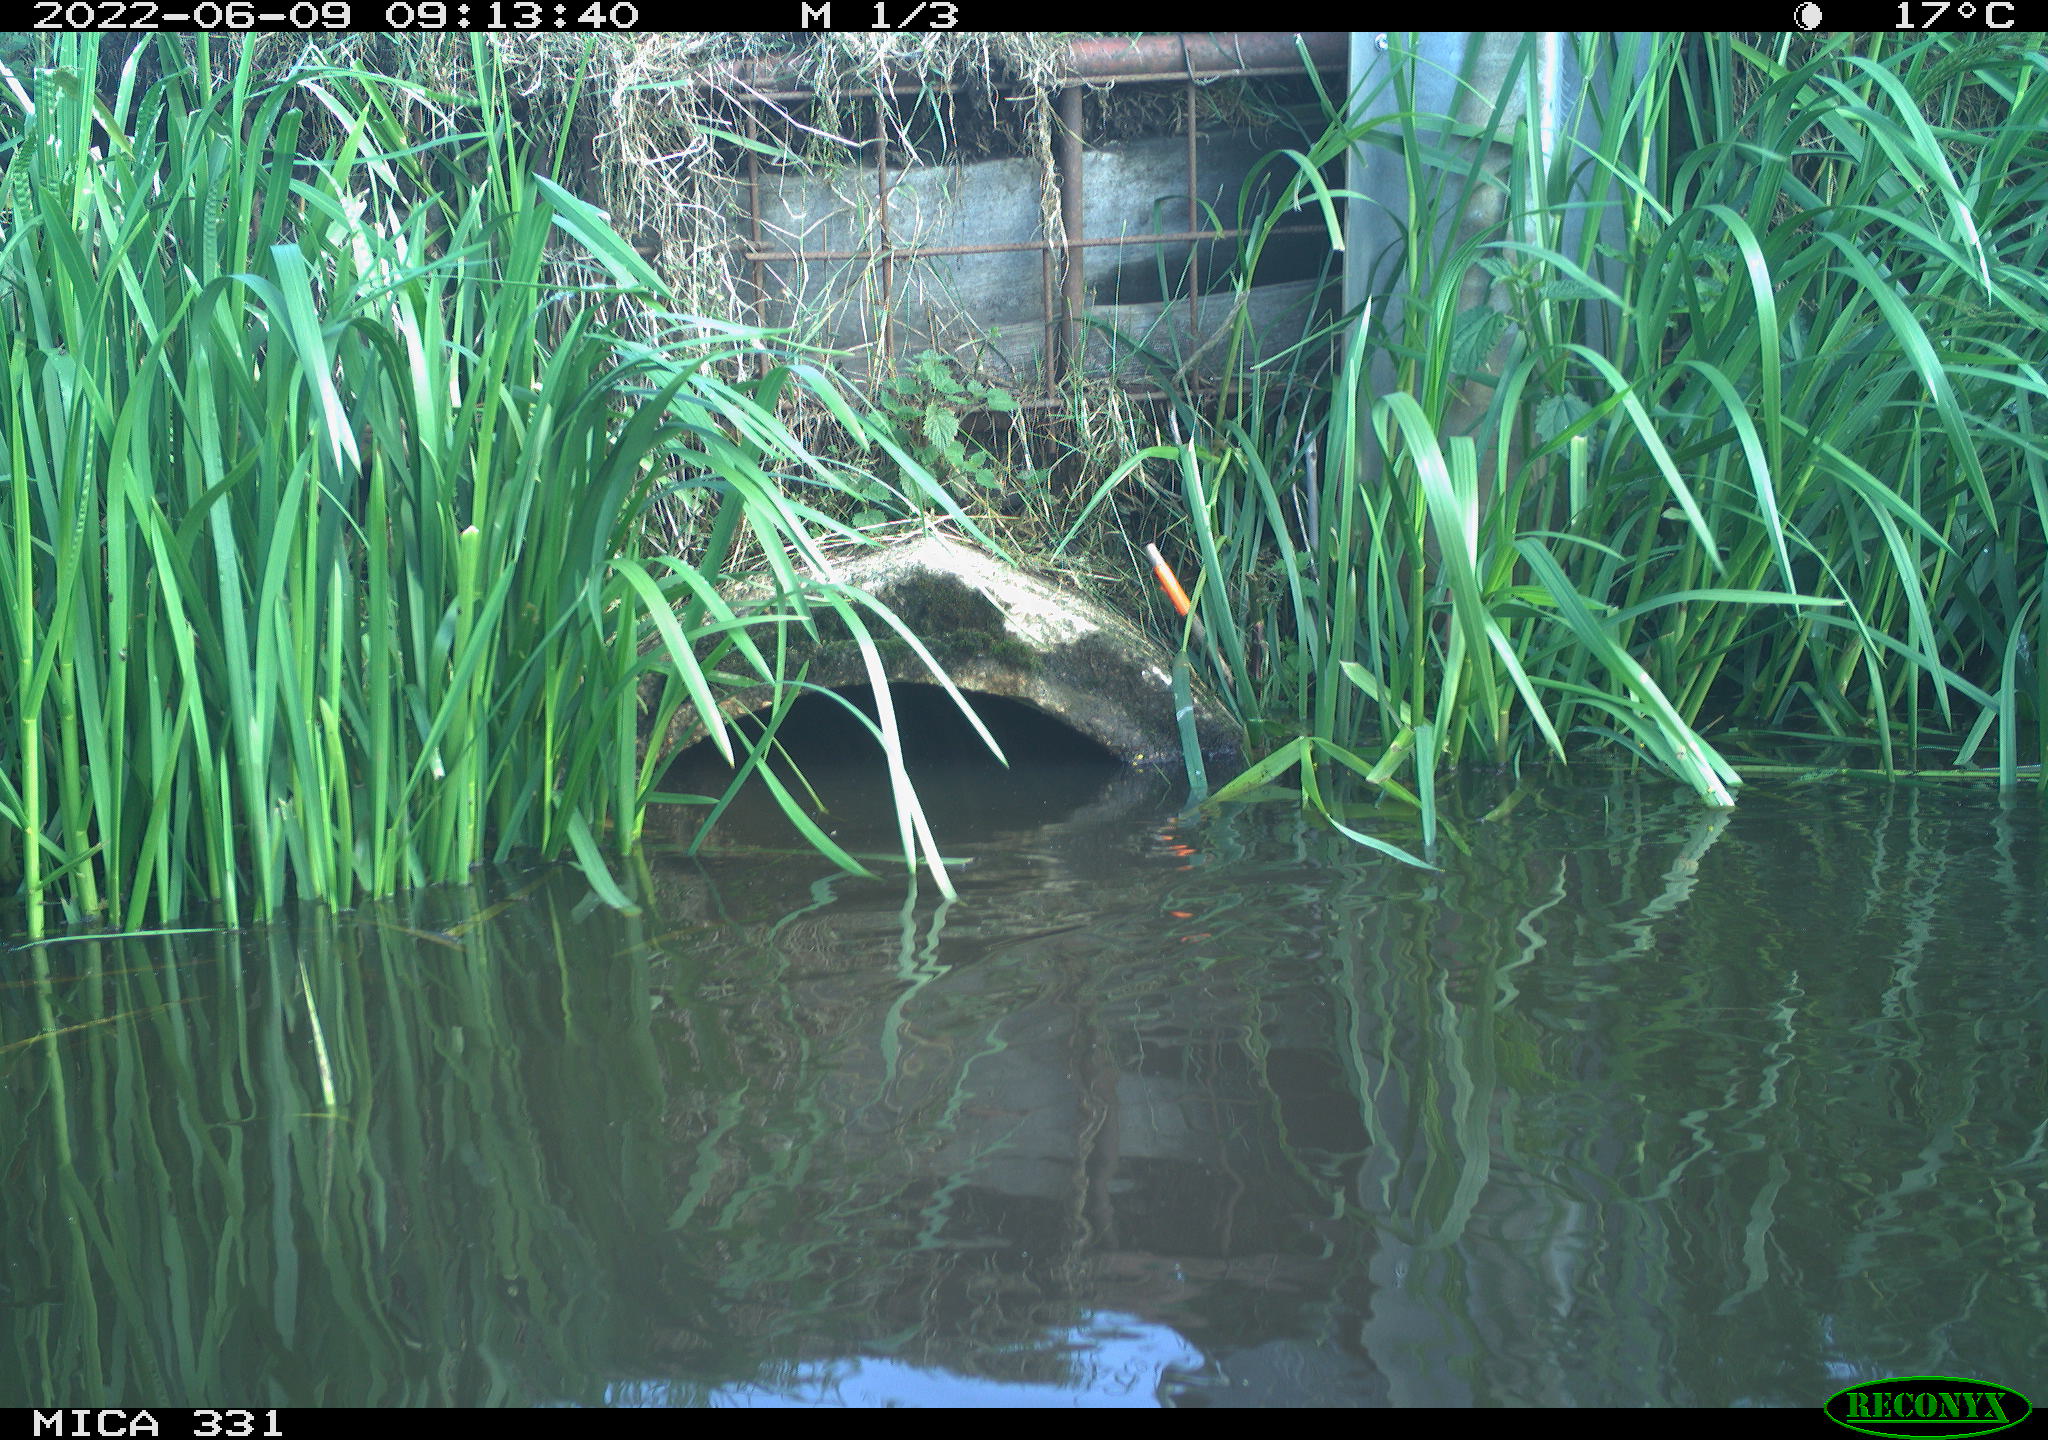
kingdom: Animalia
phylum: Chordata
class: Aves
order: Gruiformes
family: Rallidae
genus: Fulica
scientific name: Fulica atra
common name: Eurasian coot
